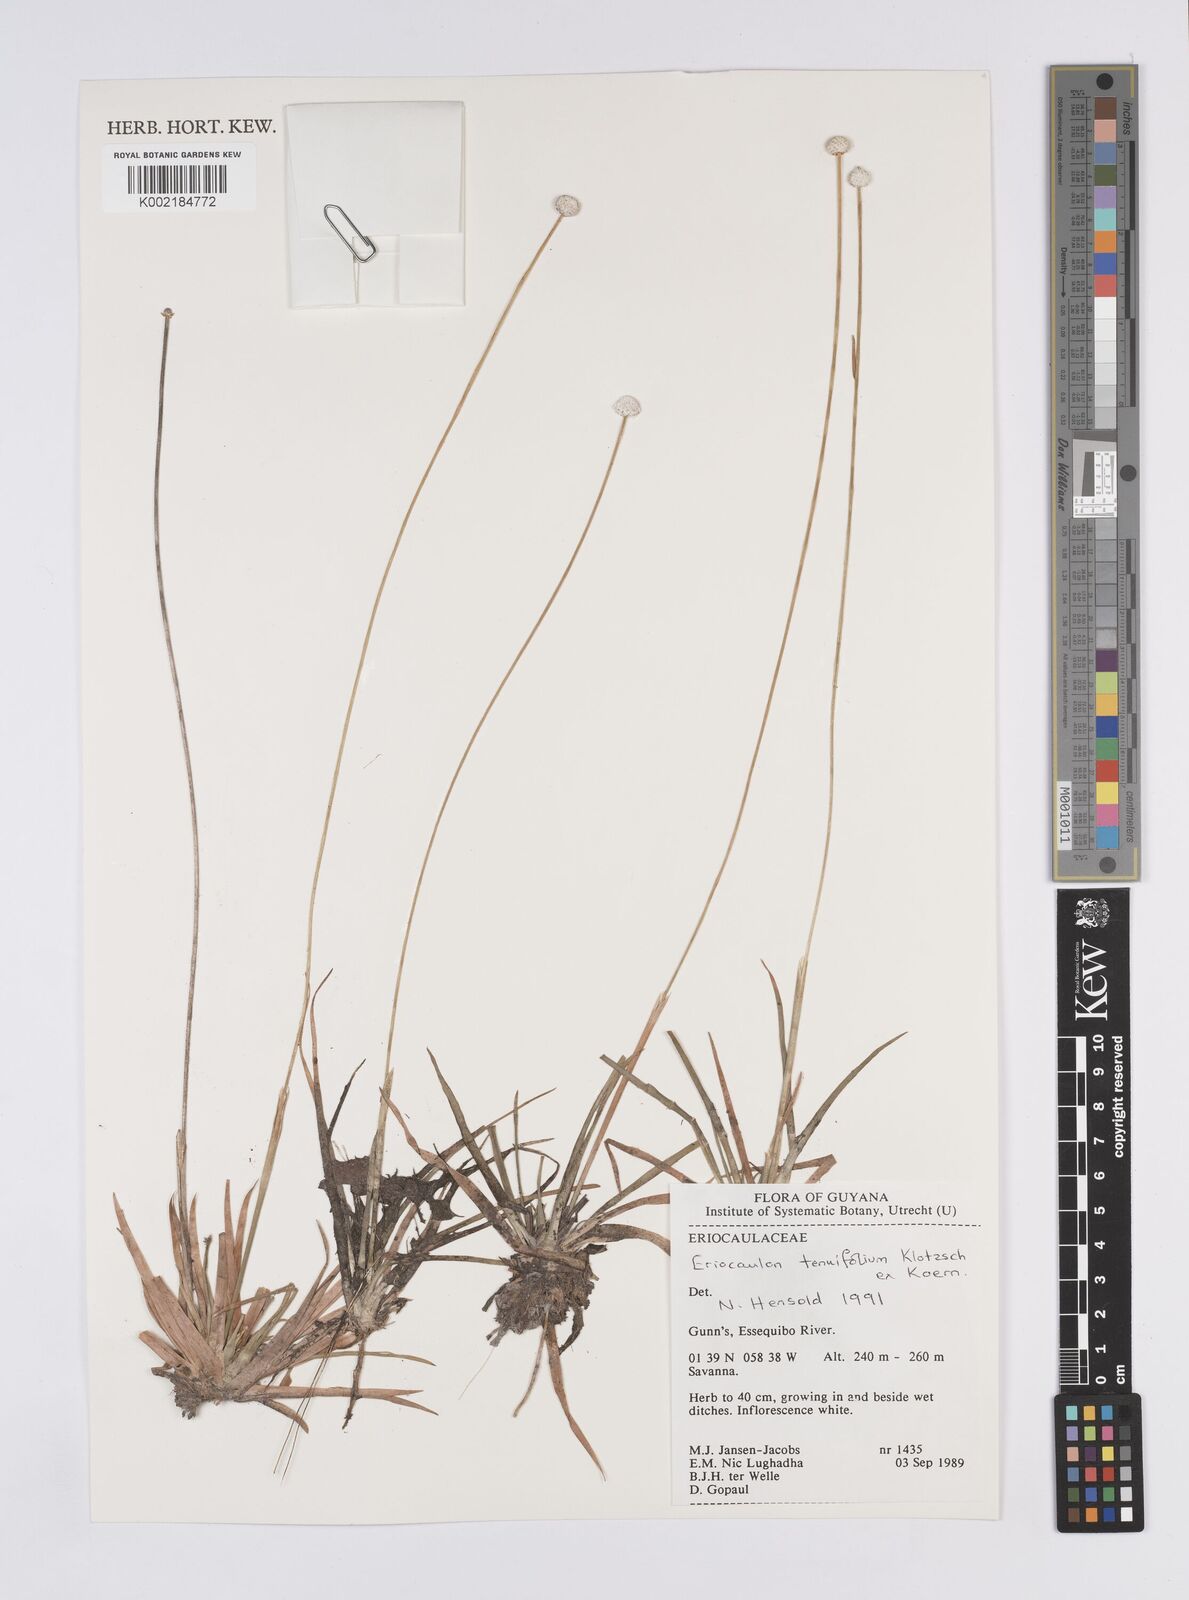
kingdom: Plantae
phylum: Tracheophyta
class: Liliopsida
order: Poales
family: Eriocaulaceae
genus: Eriocaulon
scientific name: Eriocaulon tenuifolium
